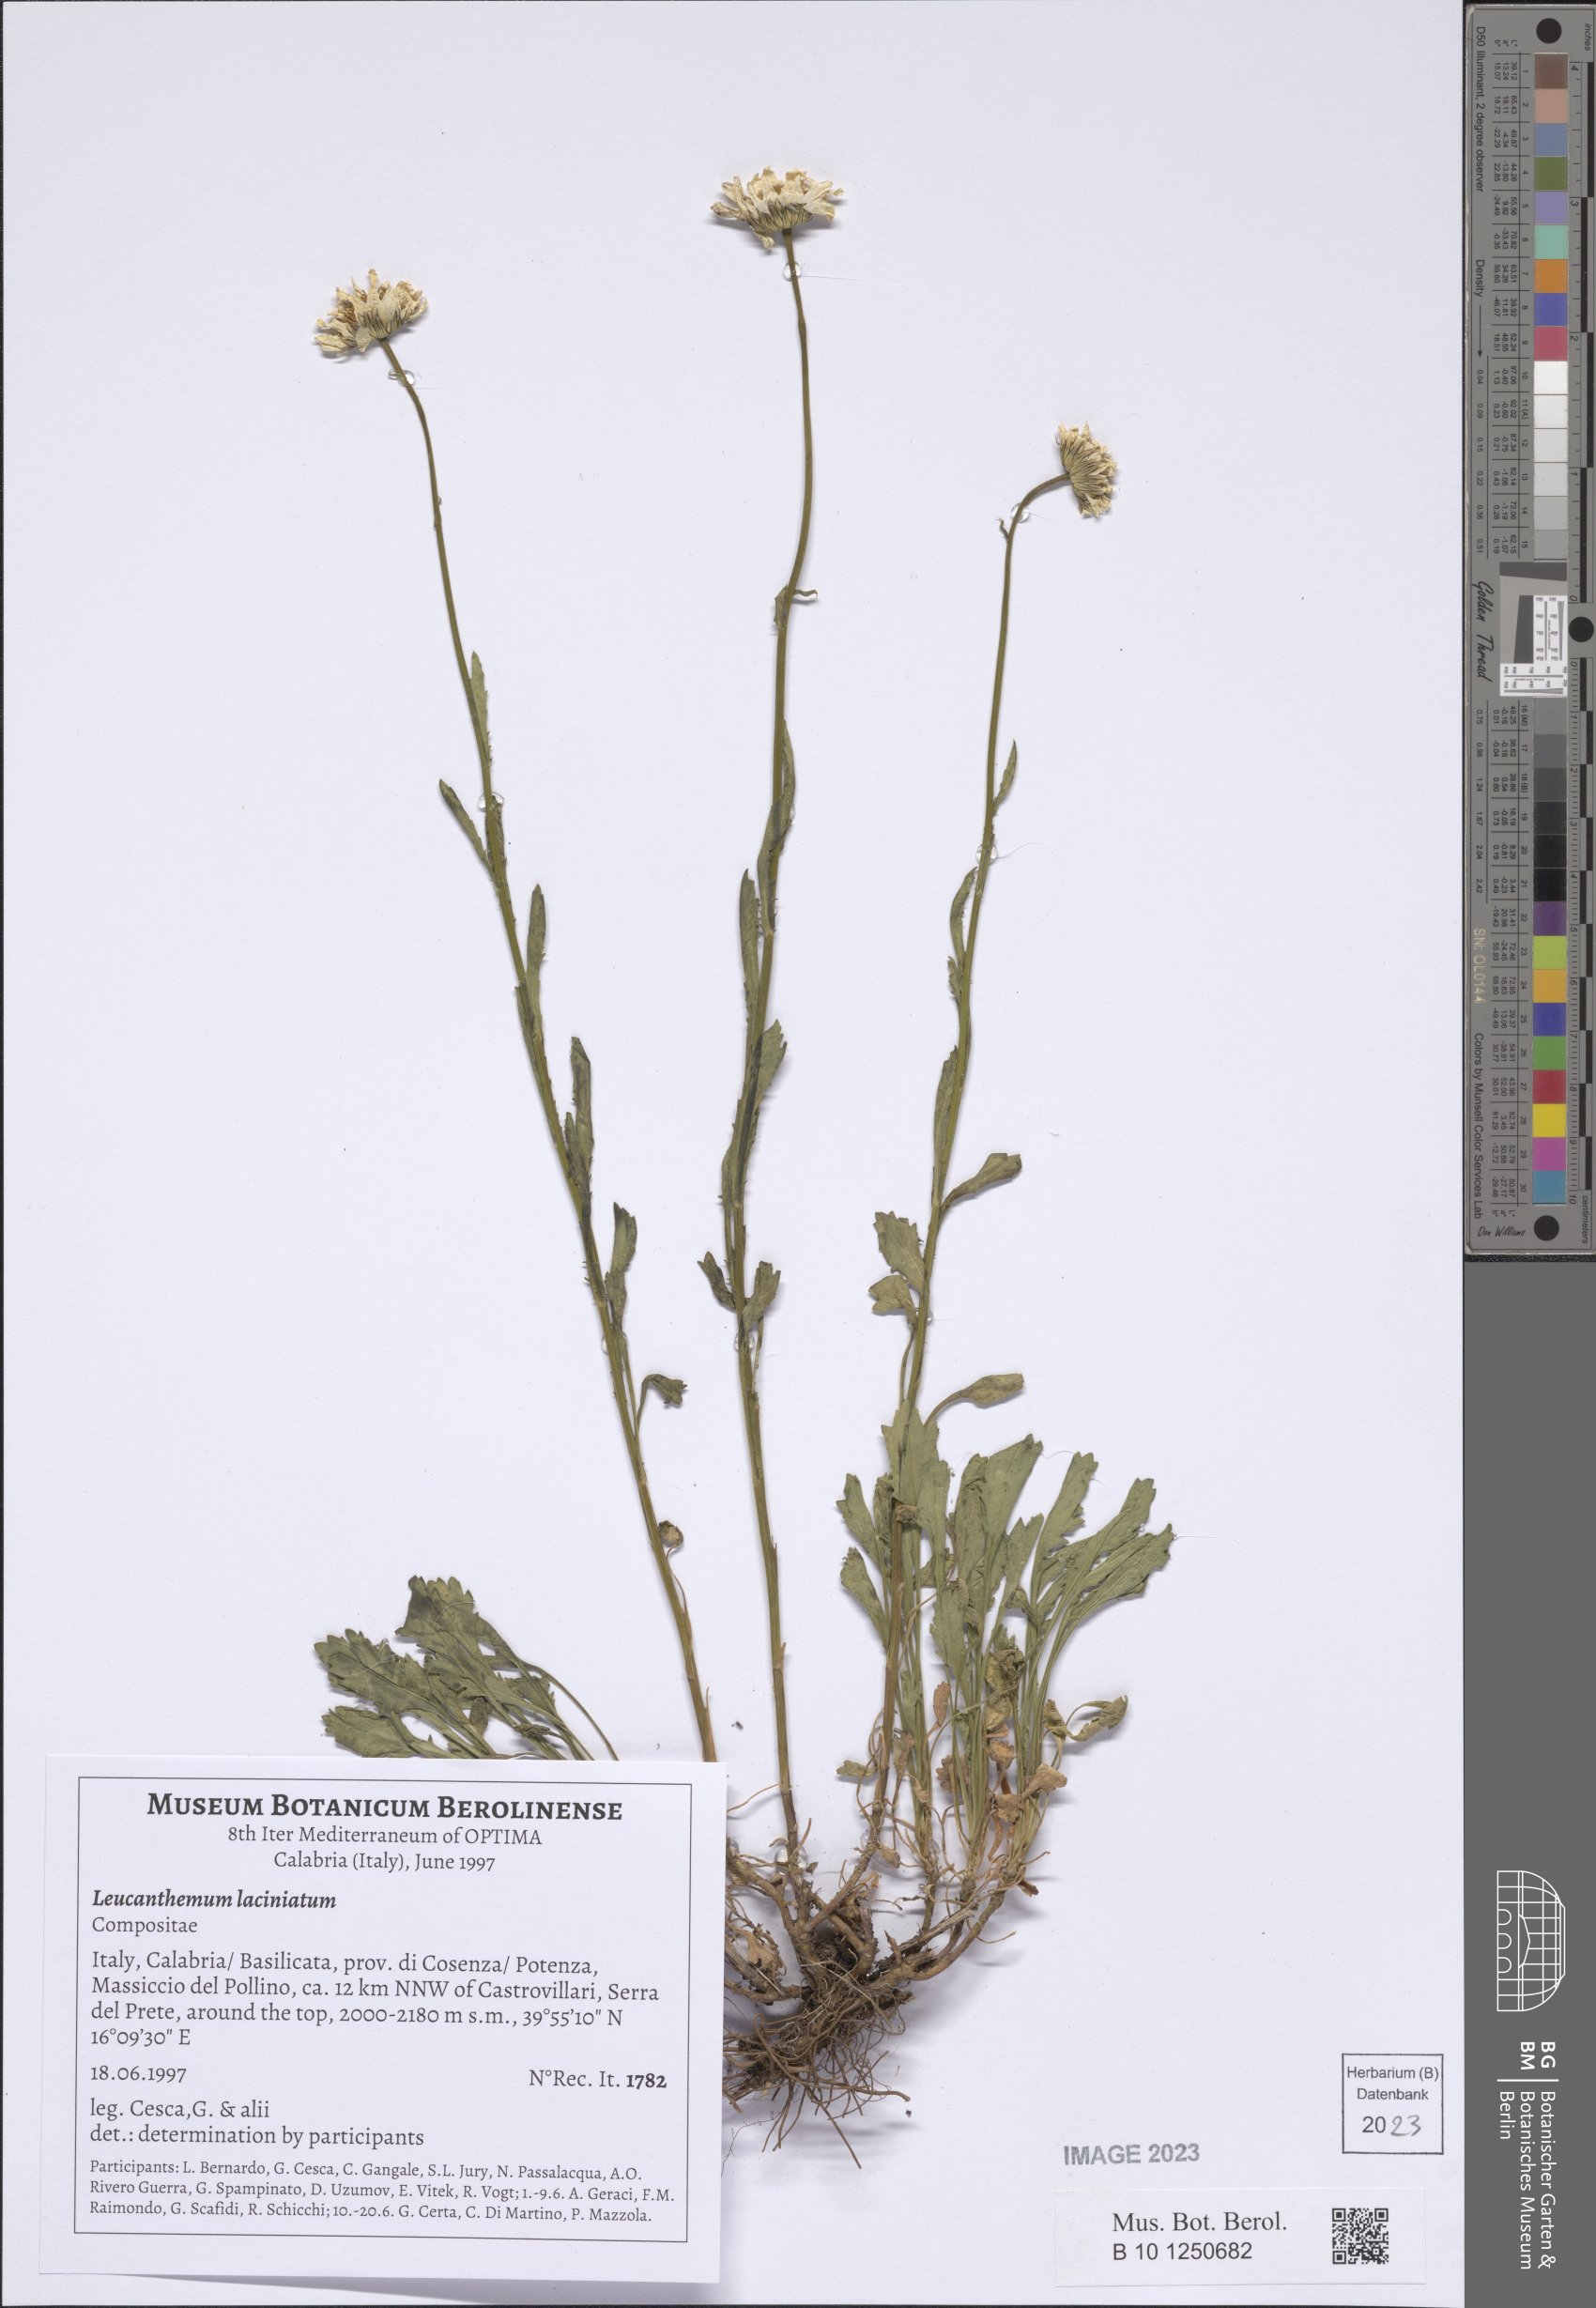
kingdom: Plantae
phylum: Tracheophyta
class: Magnoliopsida
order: Asterales
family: Asteraceae
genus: Leucanthemum
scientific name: Leucanthemum laciniatum
